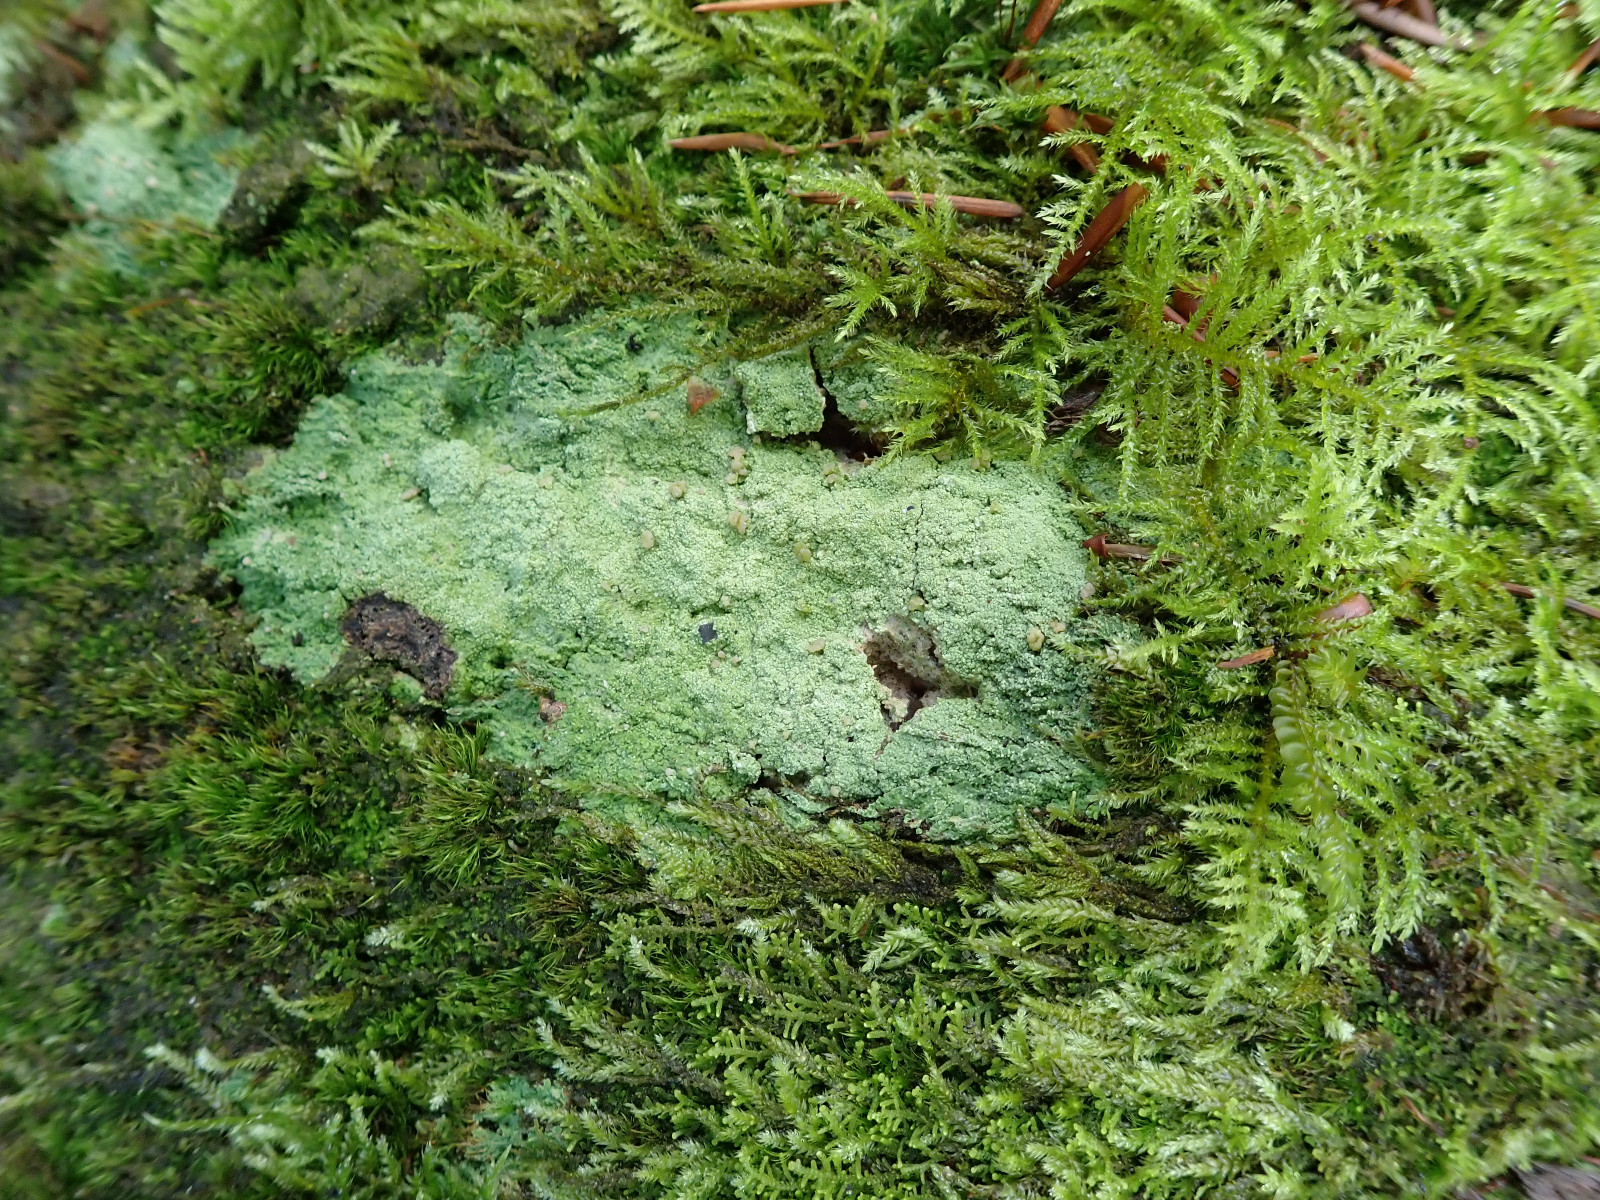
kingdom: Fungi
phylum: Ascomycota
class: Lecanoromycetes
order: Baeomycetales
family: Baeomycetaceae
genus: Baeomyces
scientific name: Baeomyces rufus
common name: rødbrun svampelav
